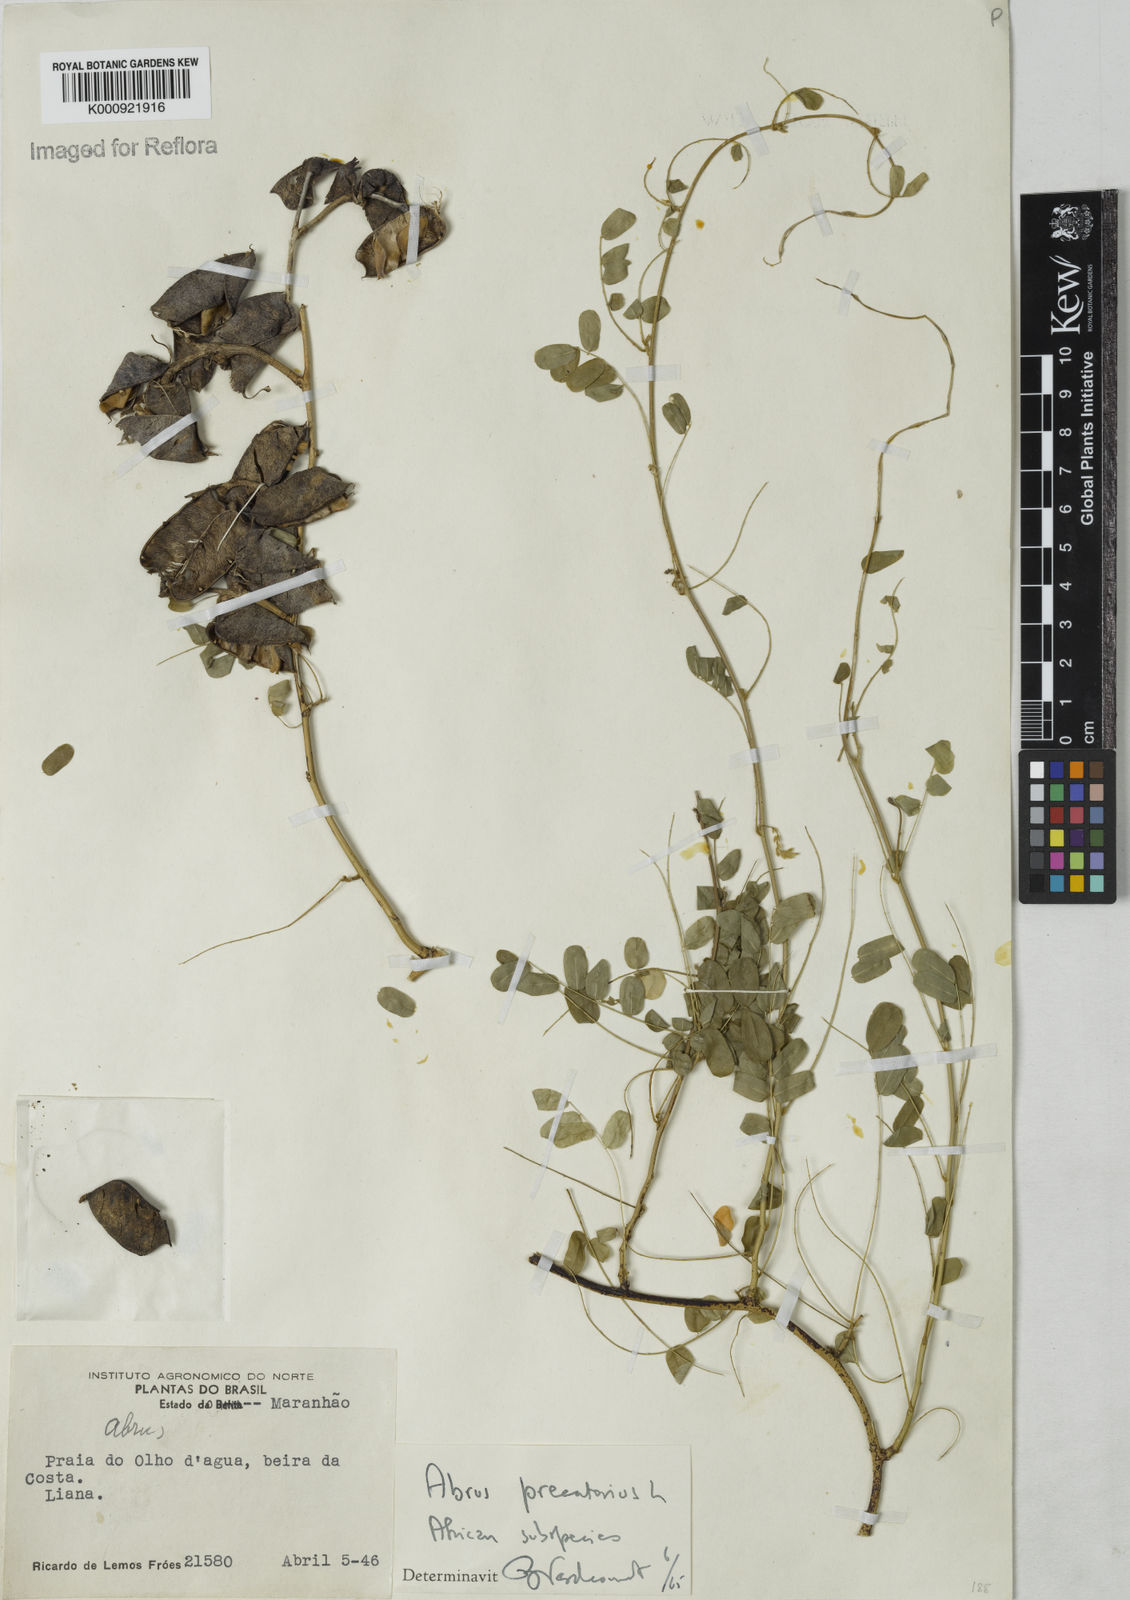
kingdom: Plantae
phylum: Tracheophyta
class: Magnoliopsida
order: Fabales
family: Fabaceae
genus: Abrus
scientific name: Abrus precatorius
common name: Rosarypea
